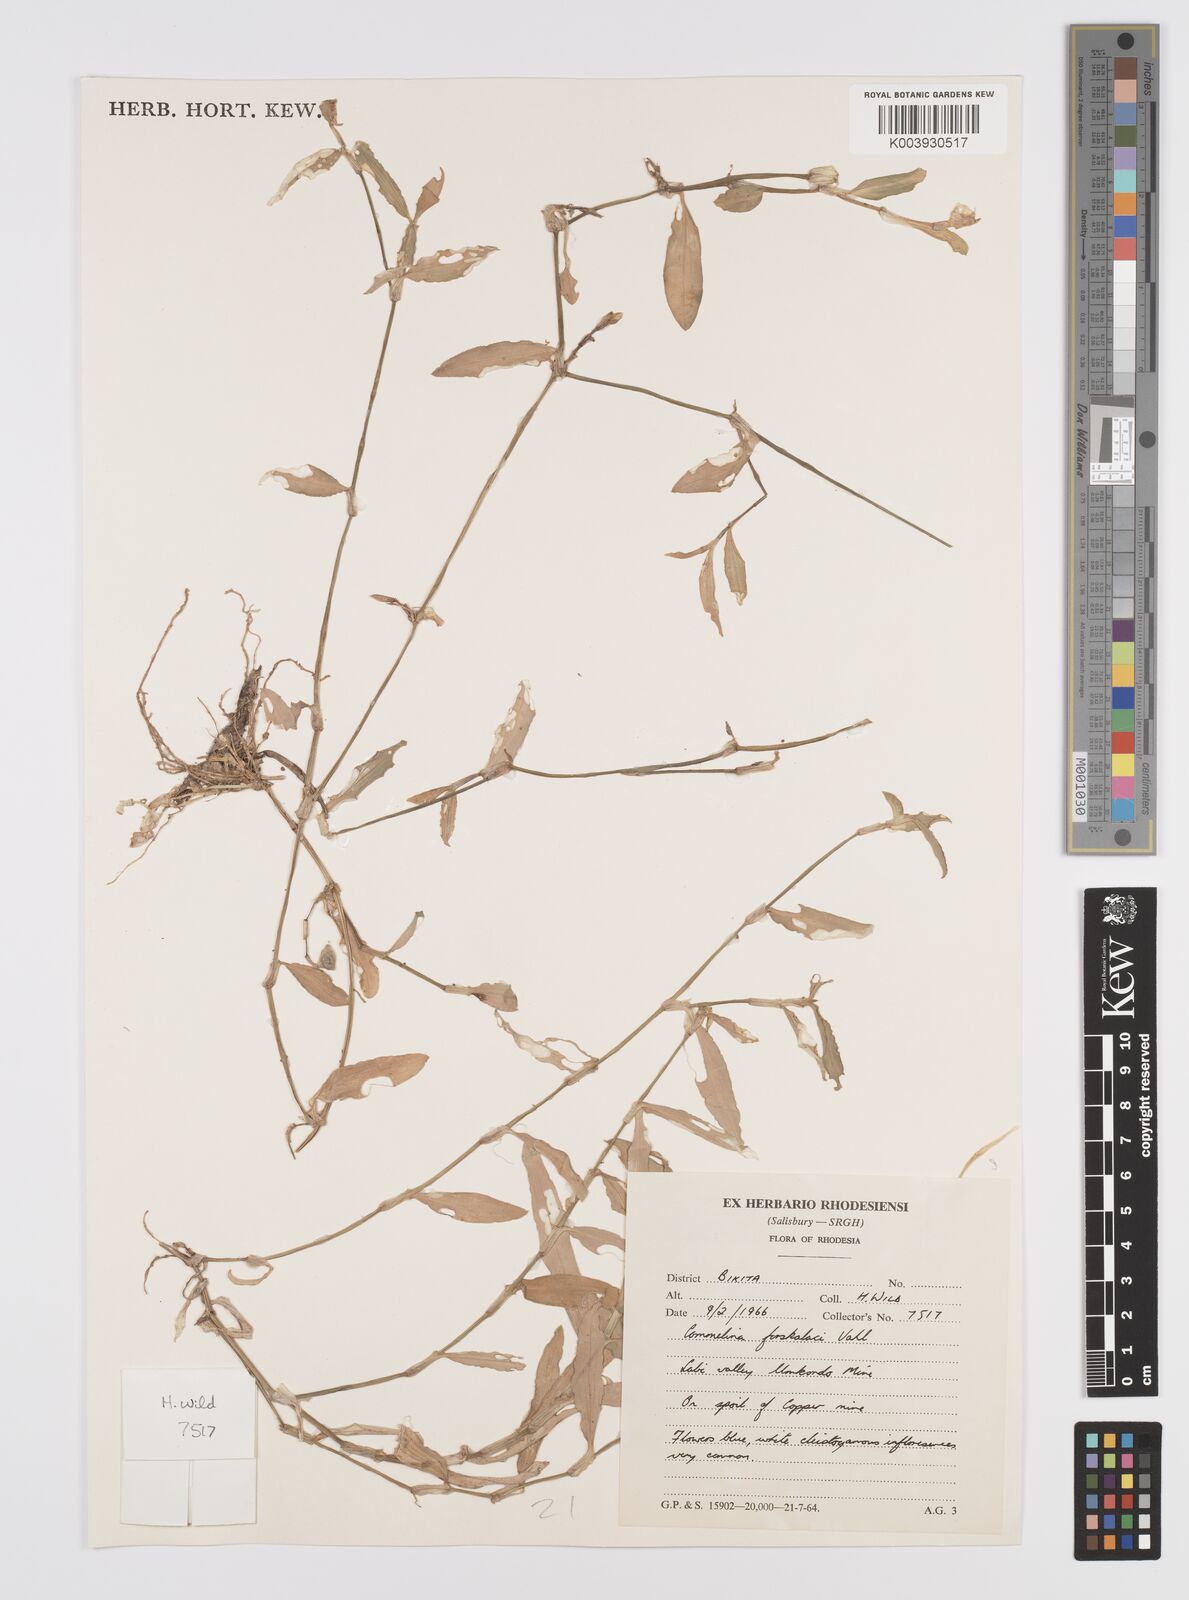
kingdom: Plantae
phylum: Tracheophyta
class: Liliopsida
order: Commelinales
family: Commelinaceae
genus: Commelina
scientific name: Commelina forskaolii
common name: Rat's ear
